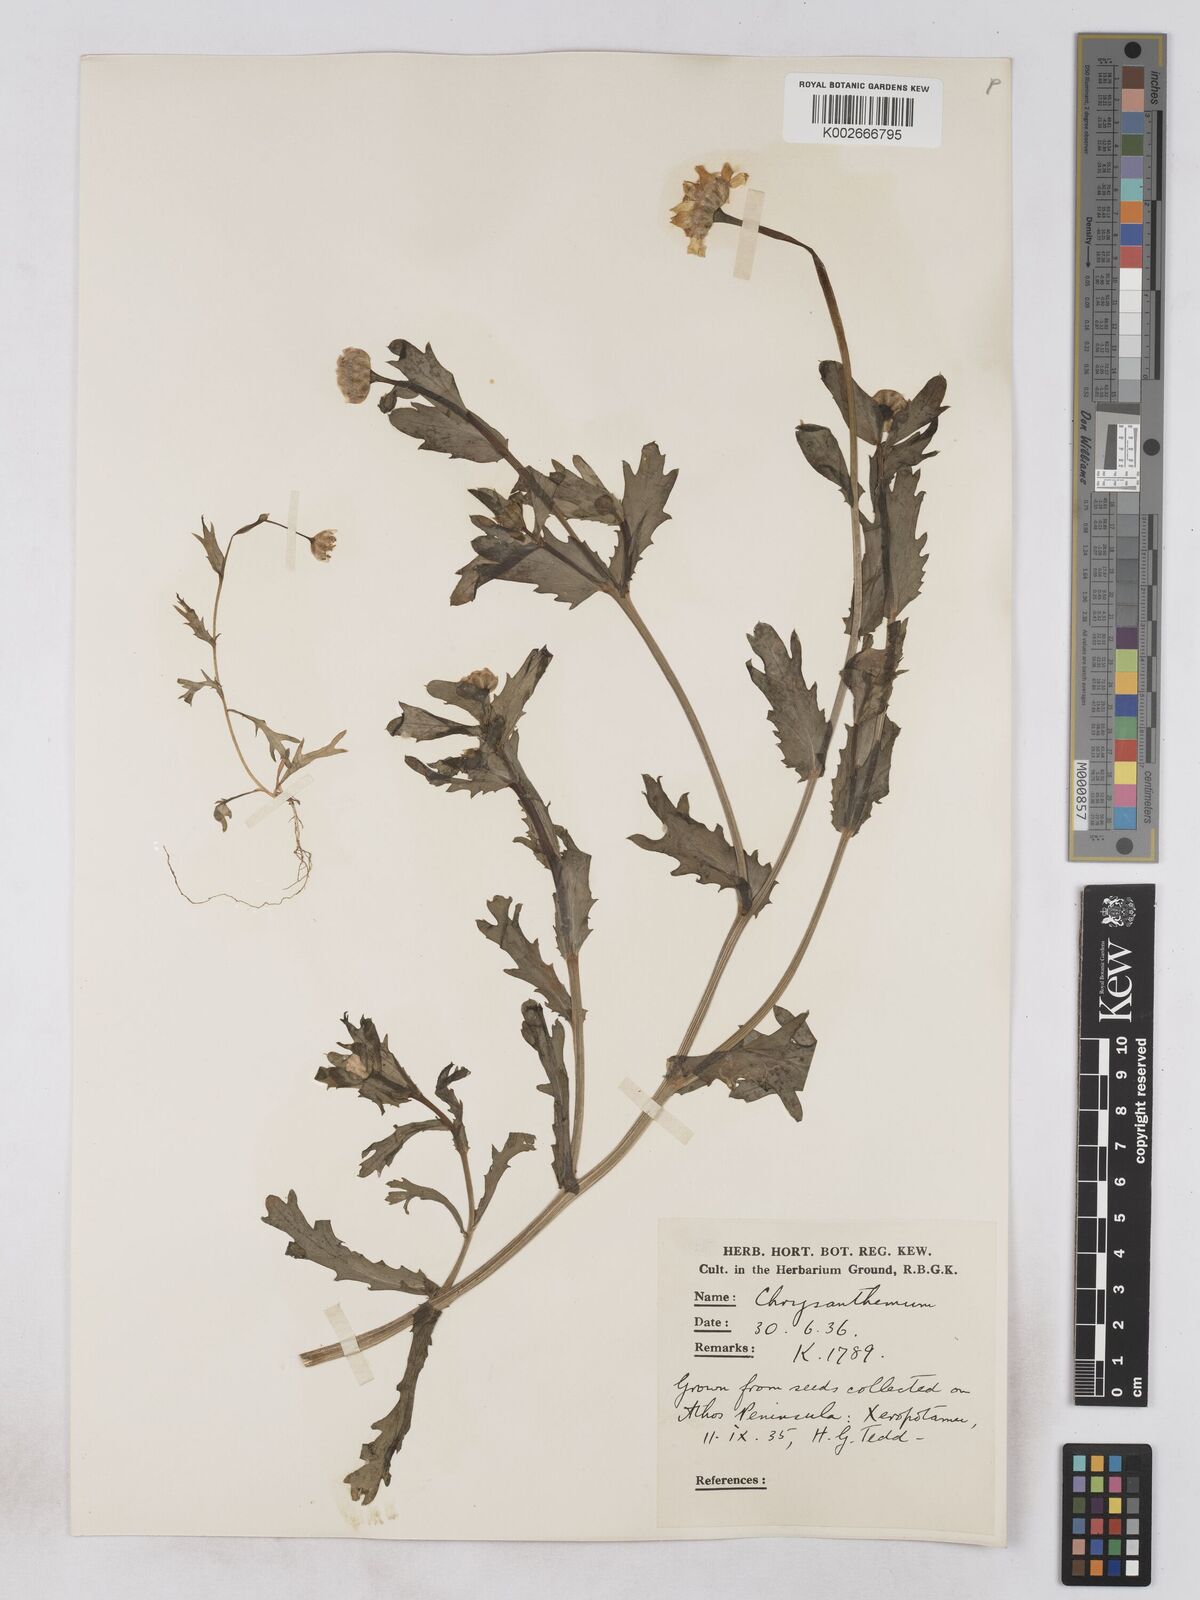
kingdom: Plantae
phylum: Tracheophyta
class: Magnoliopsida
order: Asterales
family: Asteraceae
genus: Glebionis
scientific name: Glebionis segetum
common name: Corndaisy
